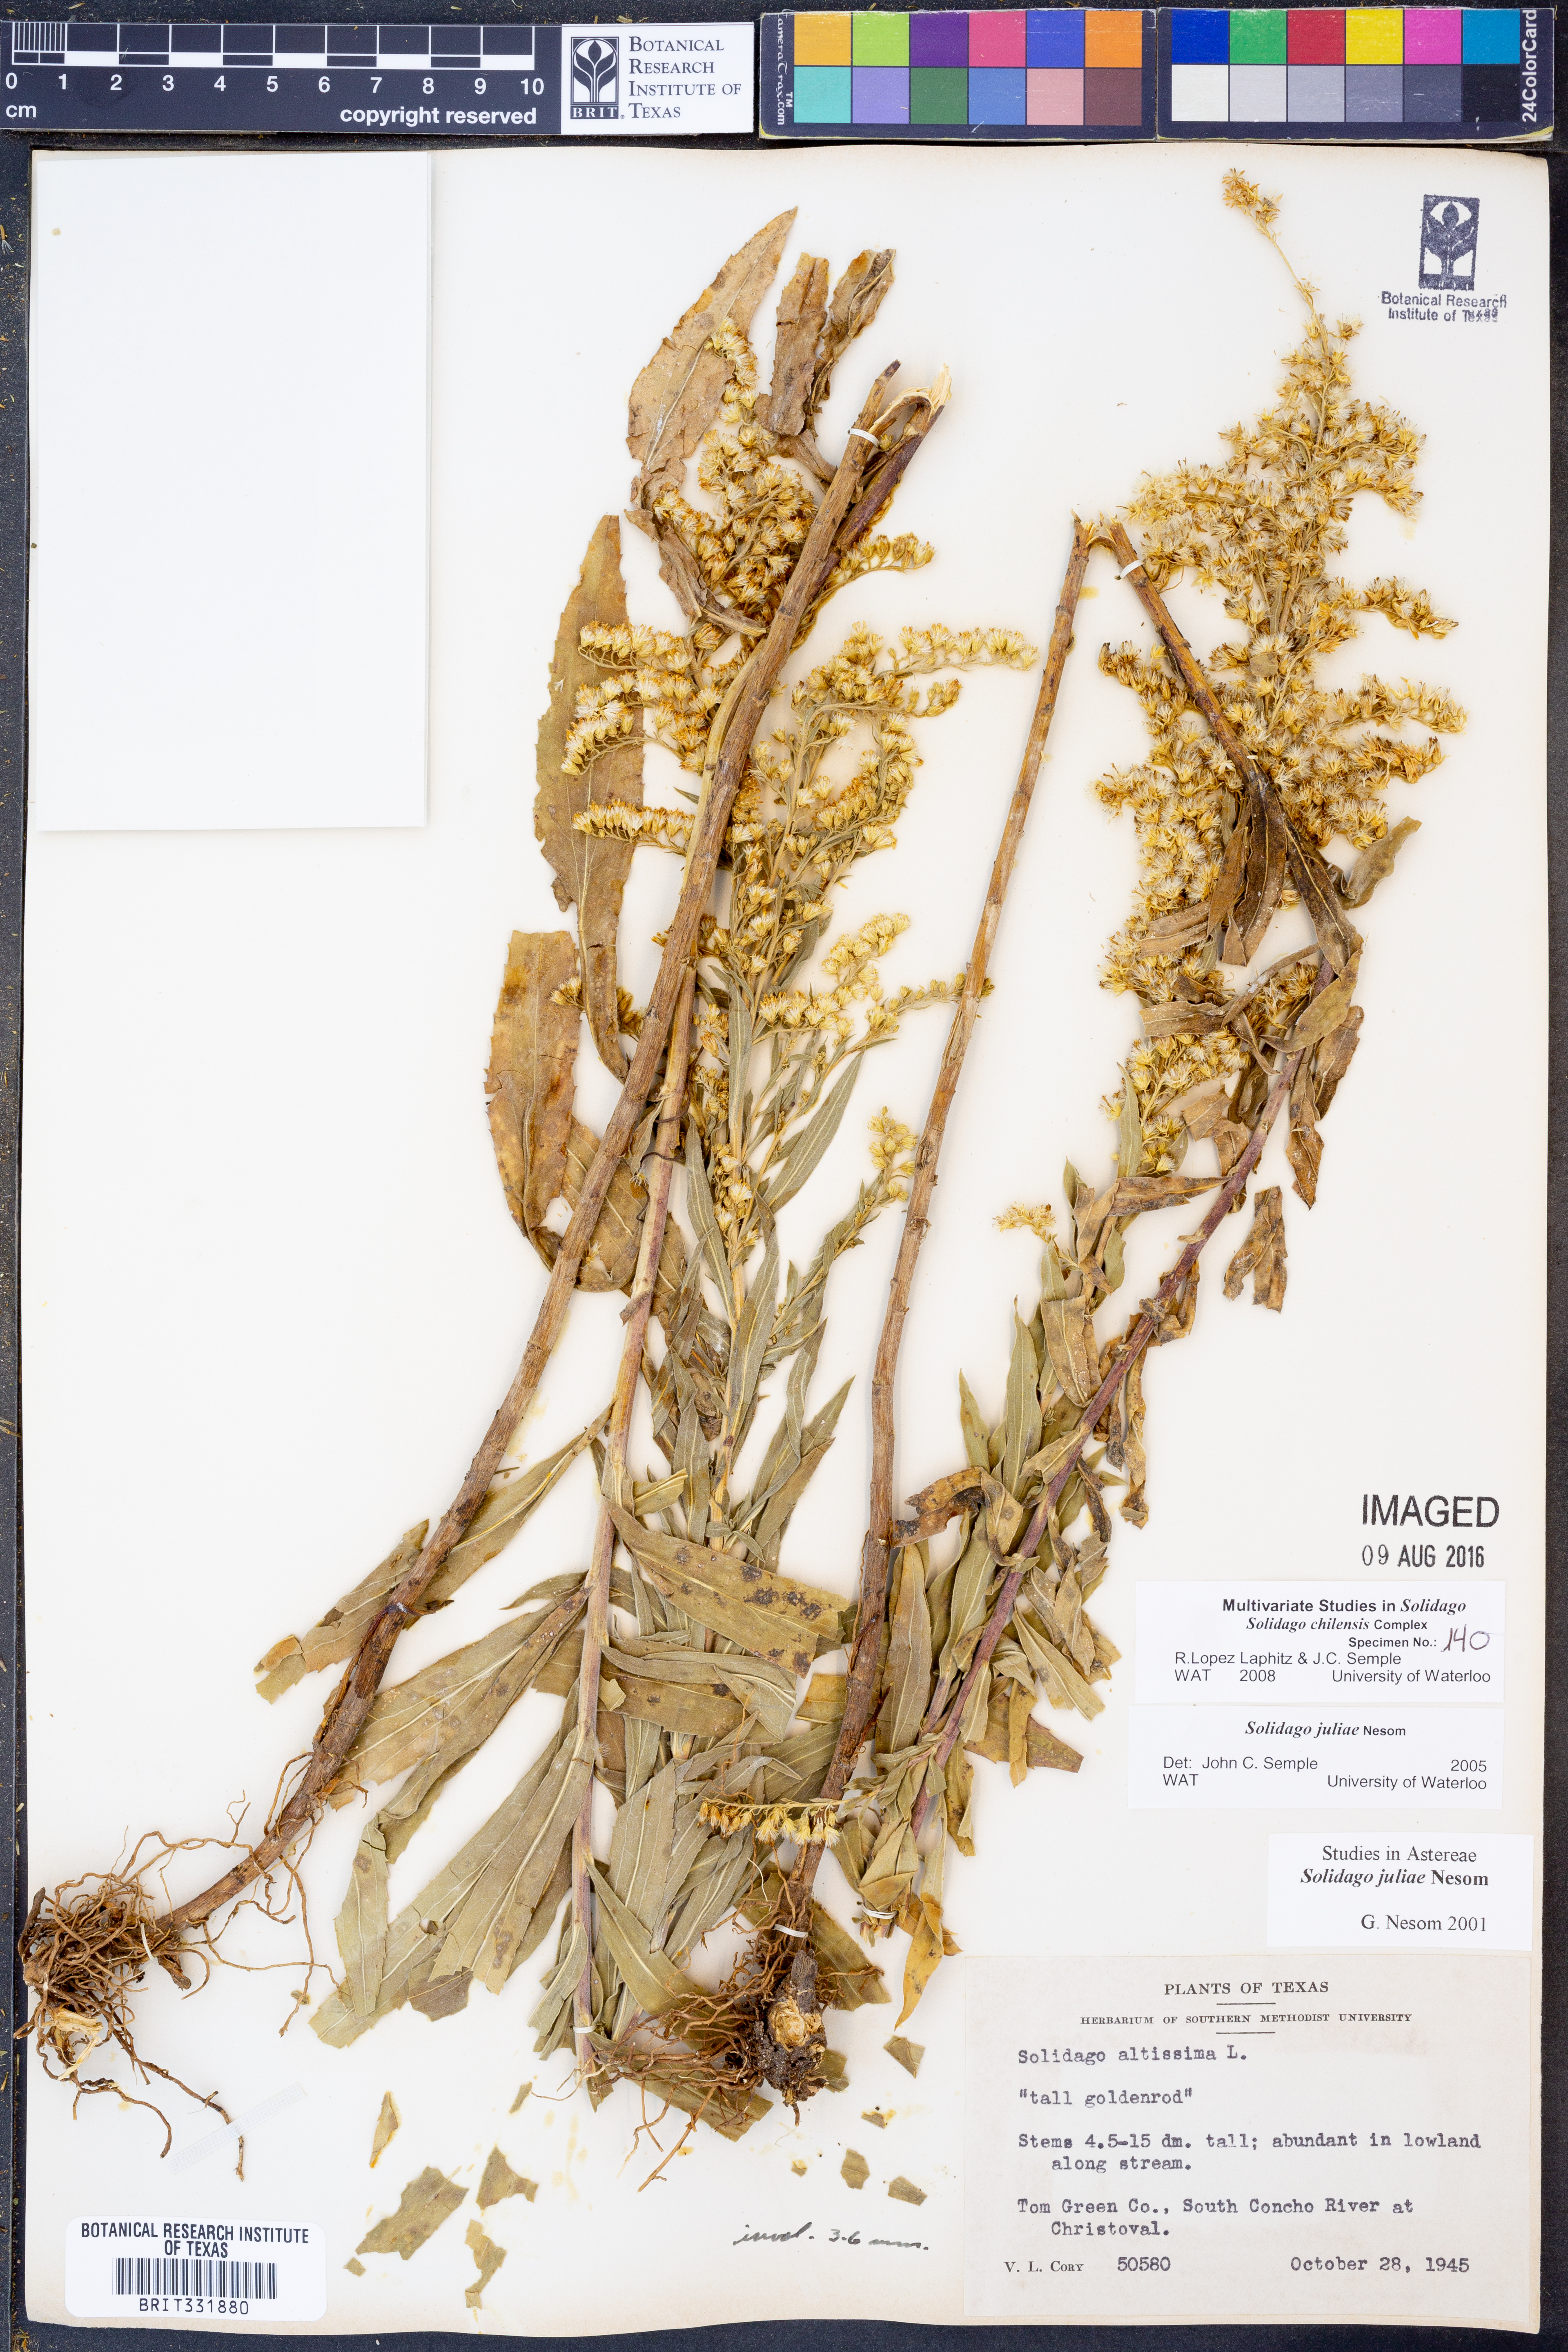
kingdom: Plantae
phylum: Tracheophyta
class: Magnoliopsida
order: Asterales
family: Asteraceae
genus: Solidago
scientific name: Solidago juliae
